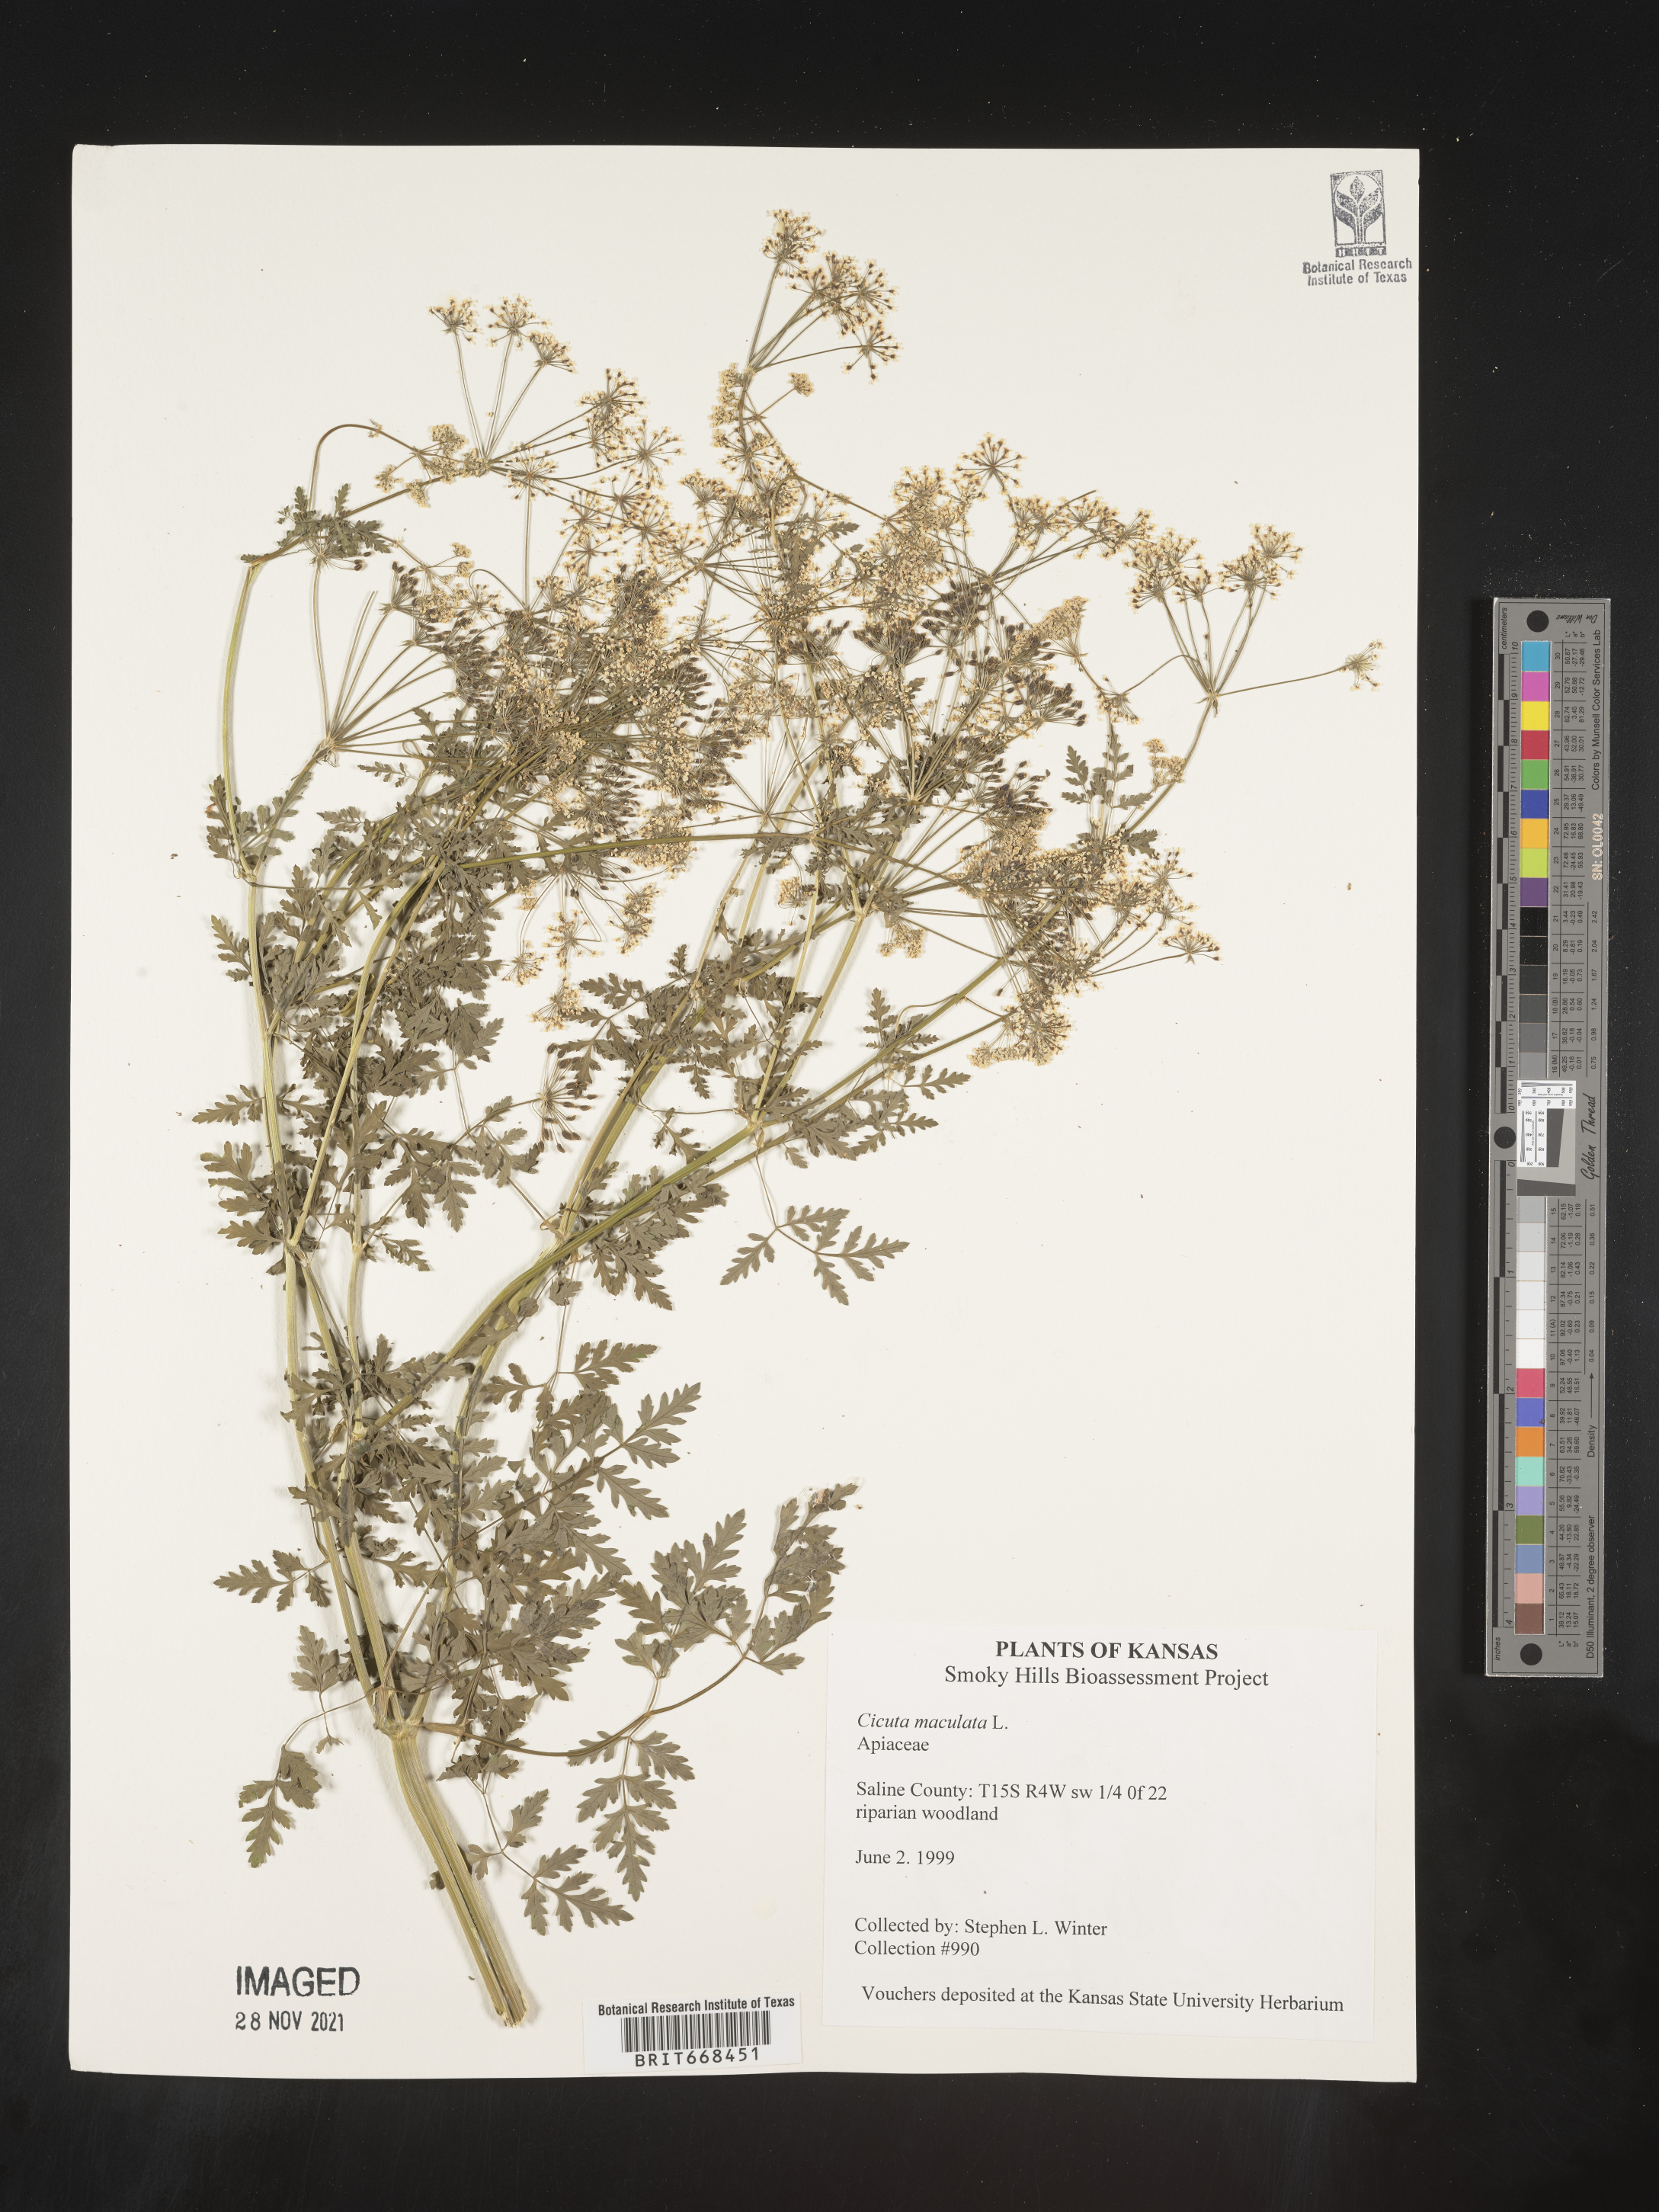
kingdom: Plantae
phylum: Tracheophyta
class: Magnoliopsida
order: Apiales
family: Apiaceae
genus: Cicuta
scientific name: Cicuta maculata
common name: Spotted cowbane
